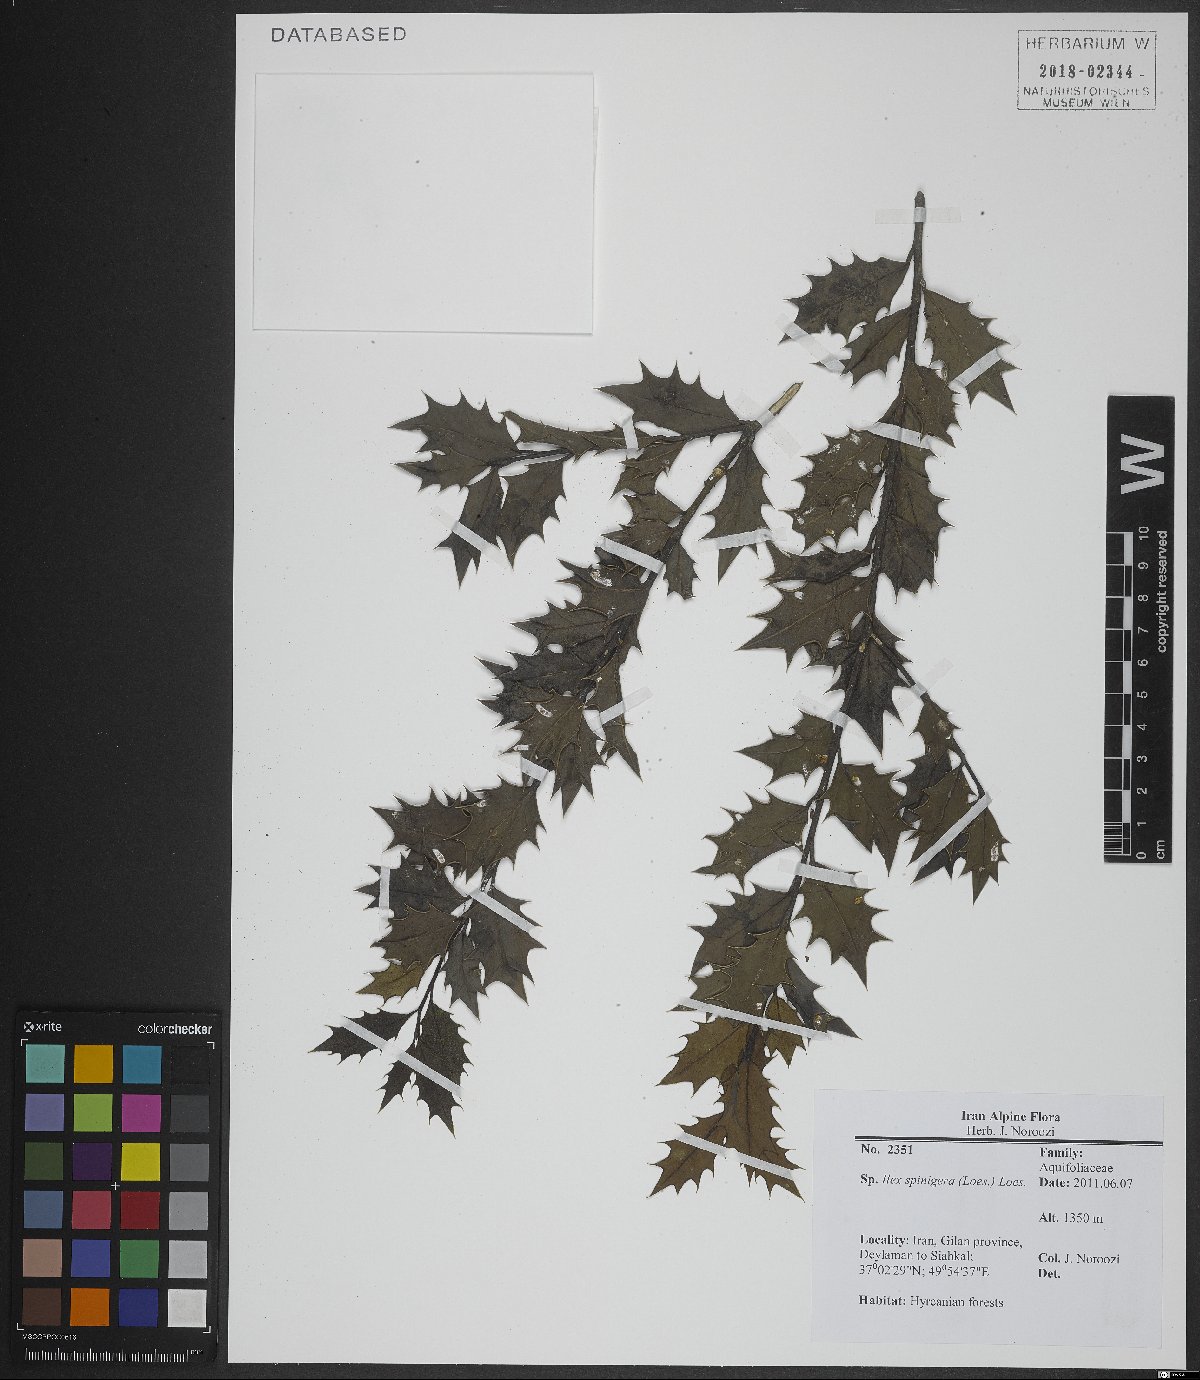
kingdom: Plantae
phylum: Tracheophyta
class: Magnoliopsida
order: Aquifoliales
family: Aquifoliaceae
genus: Ilex
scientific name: Ilex spinigera
